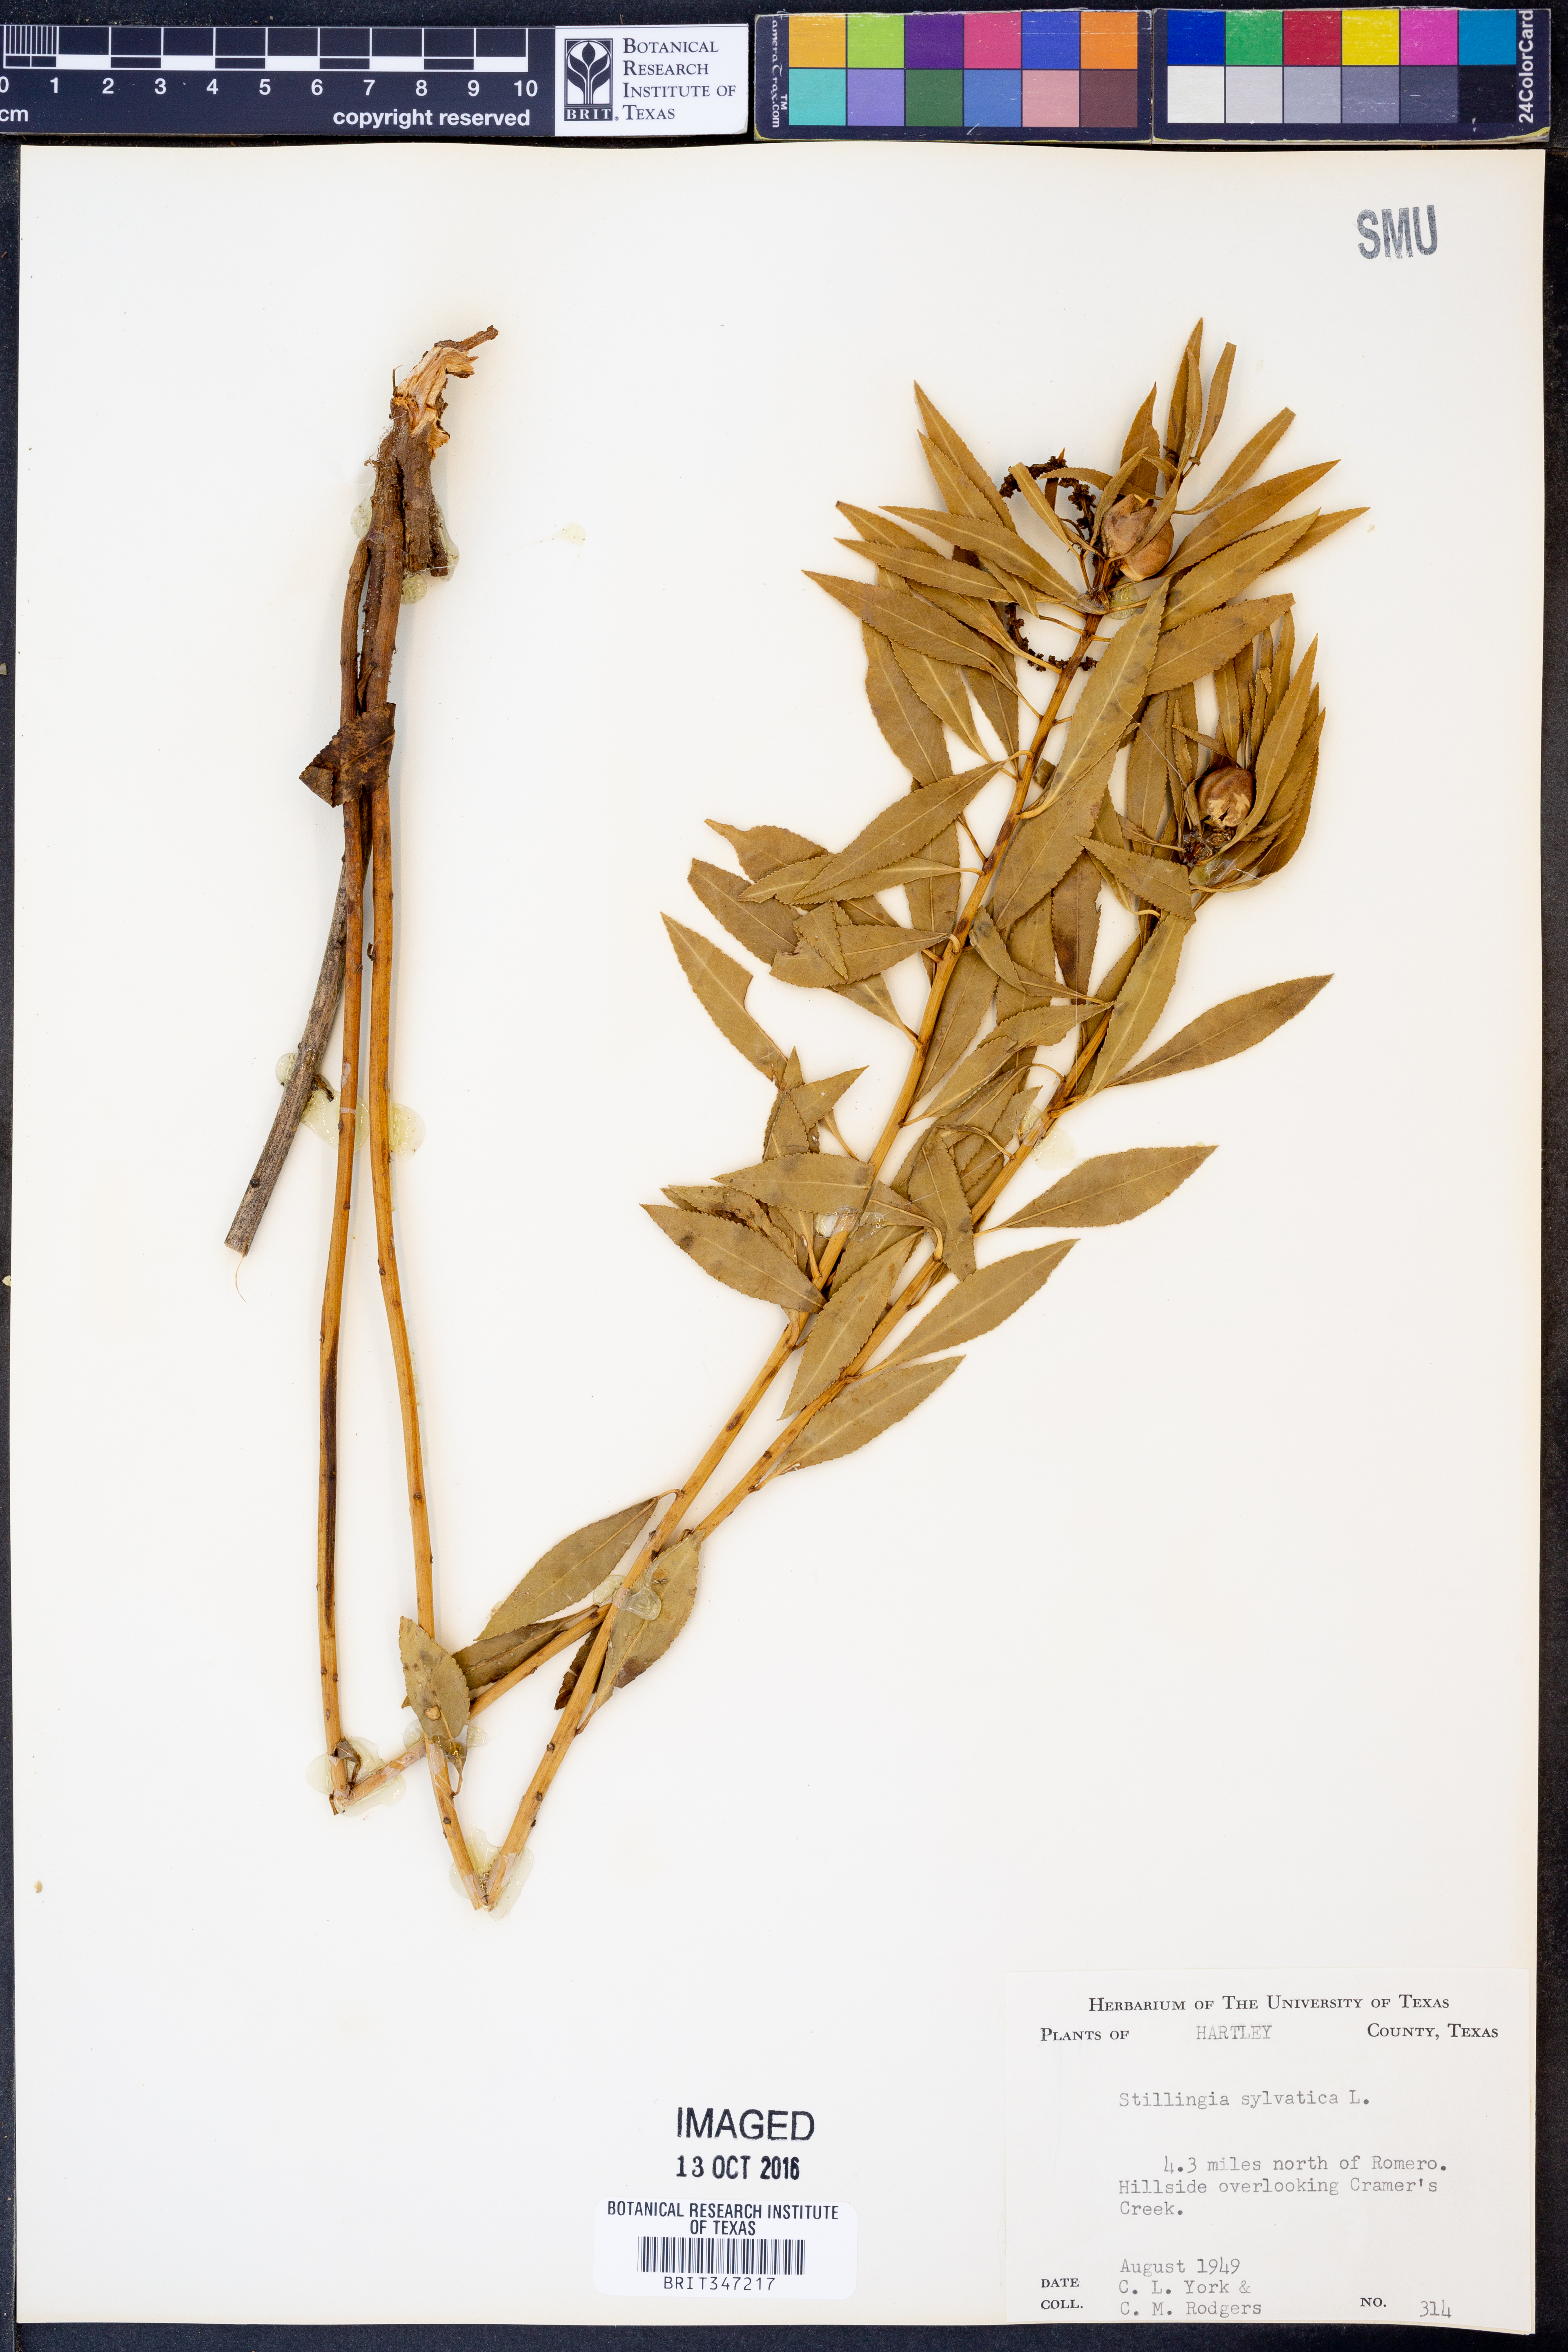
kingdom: Plantae
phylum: Tracheophyta
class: Magnoliopsida
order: Malpighiales
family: Euphorbiaceae
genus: Stillingia
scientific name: Stillingia sylvatica
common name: Queen's-delight
